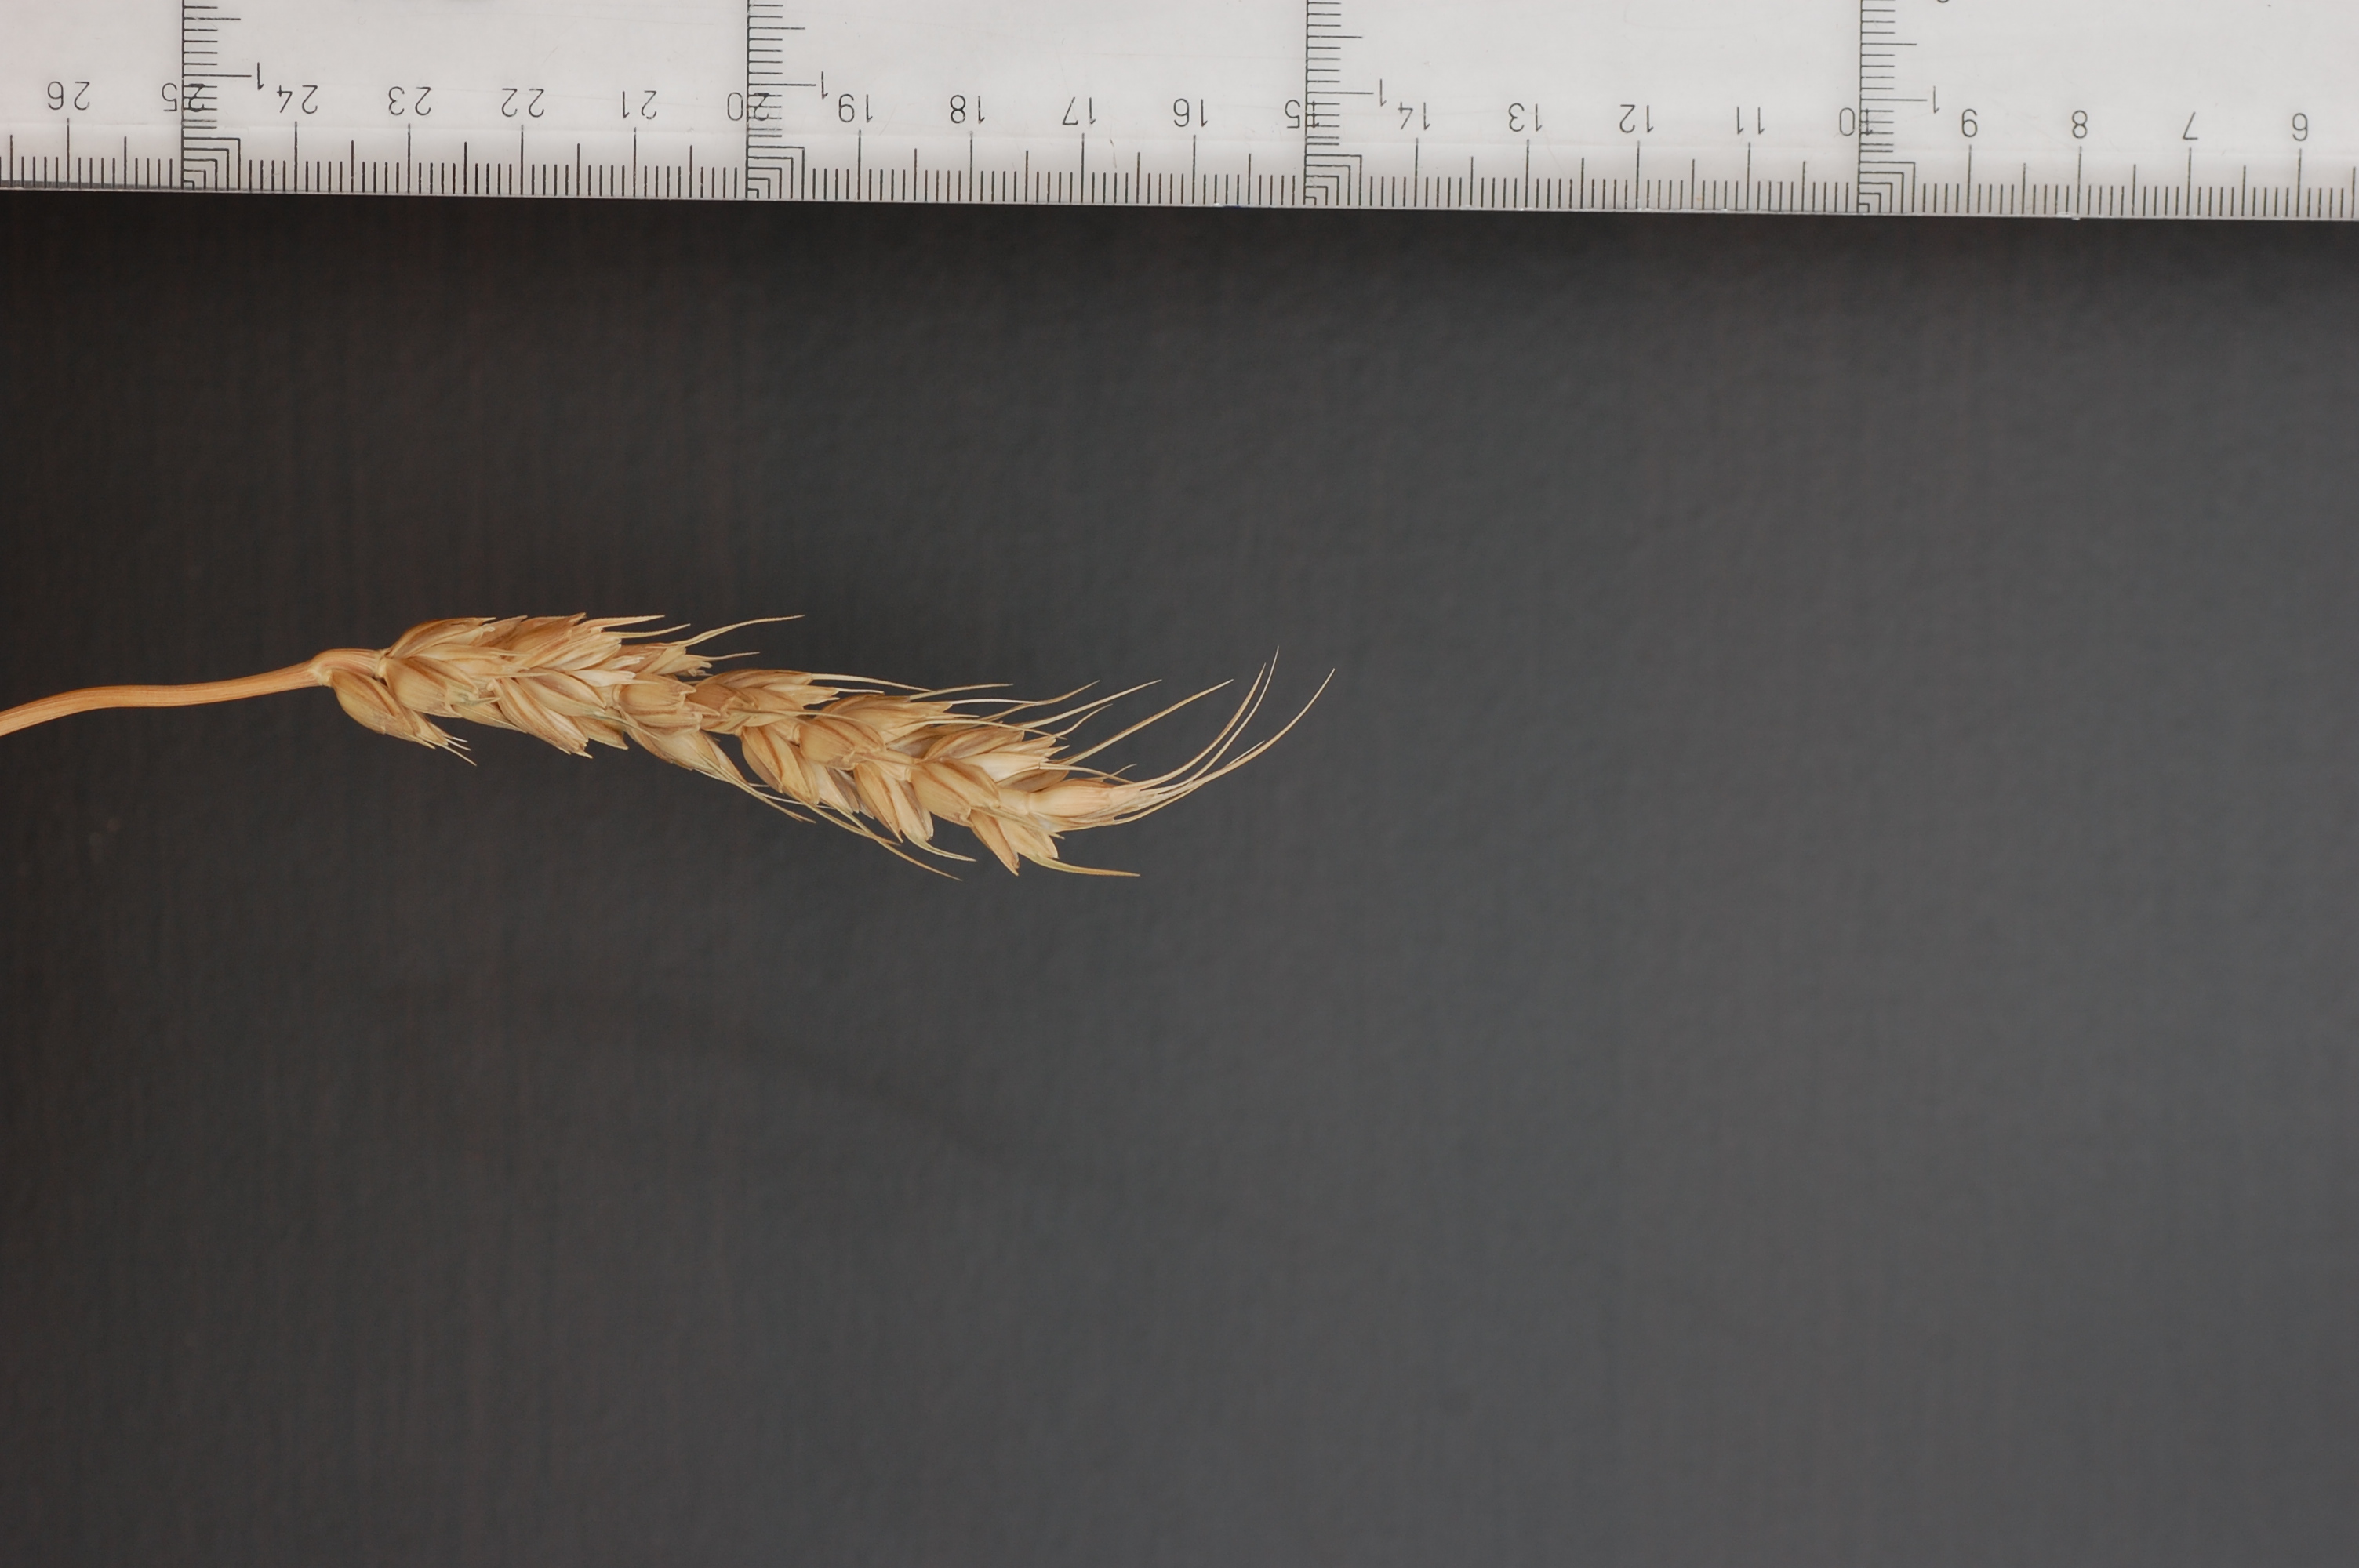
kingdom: Plantae
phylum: Tracheophyta
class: Liliopsida
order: Poales
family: Poaceae
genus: Triticum
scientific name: Triticum aestivum
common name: Common wheat
